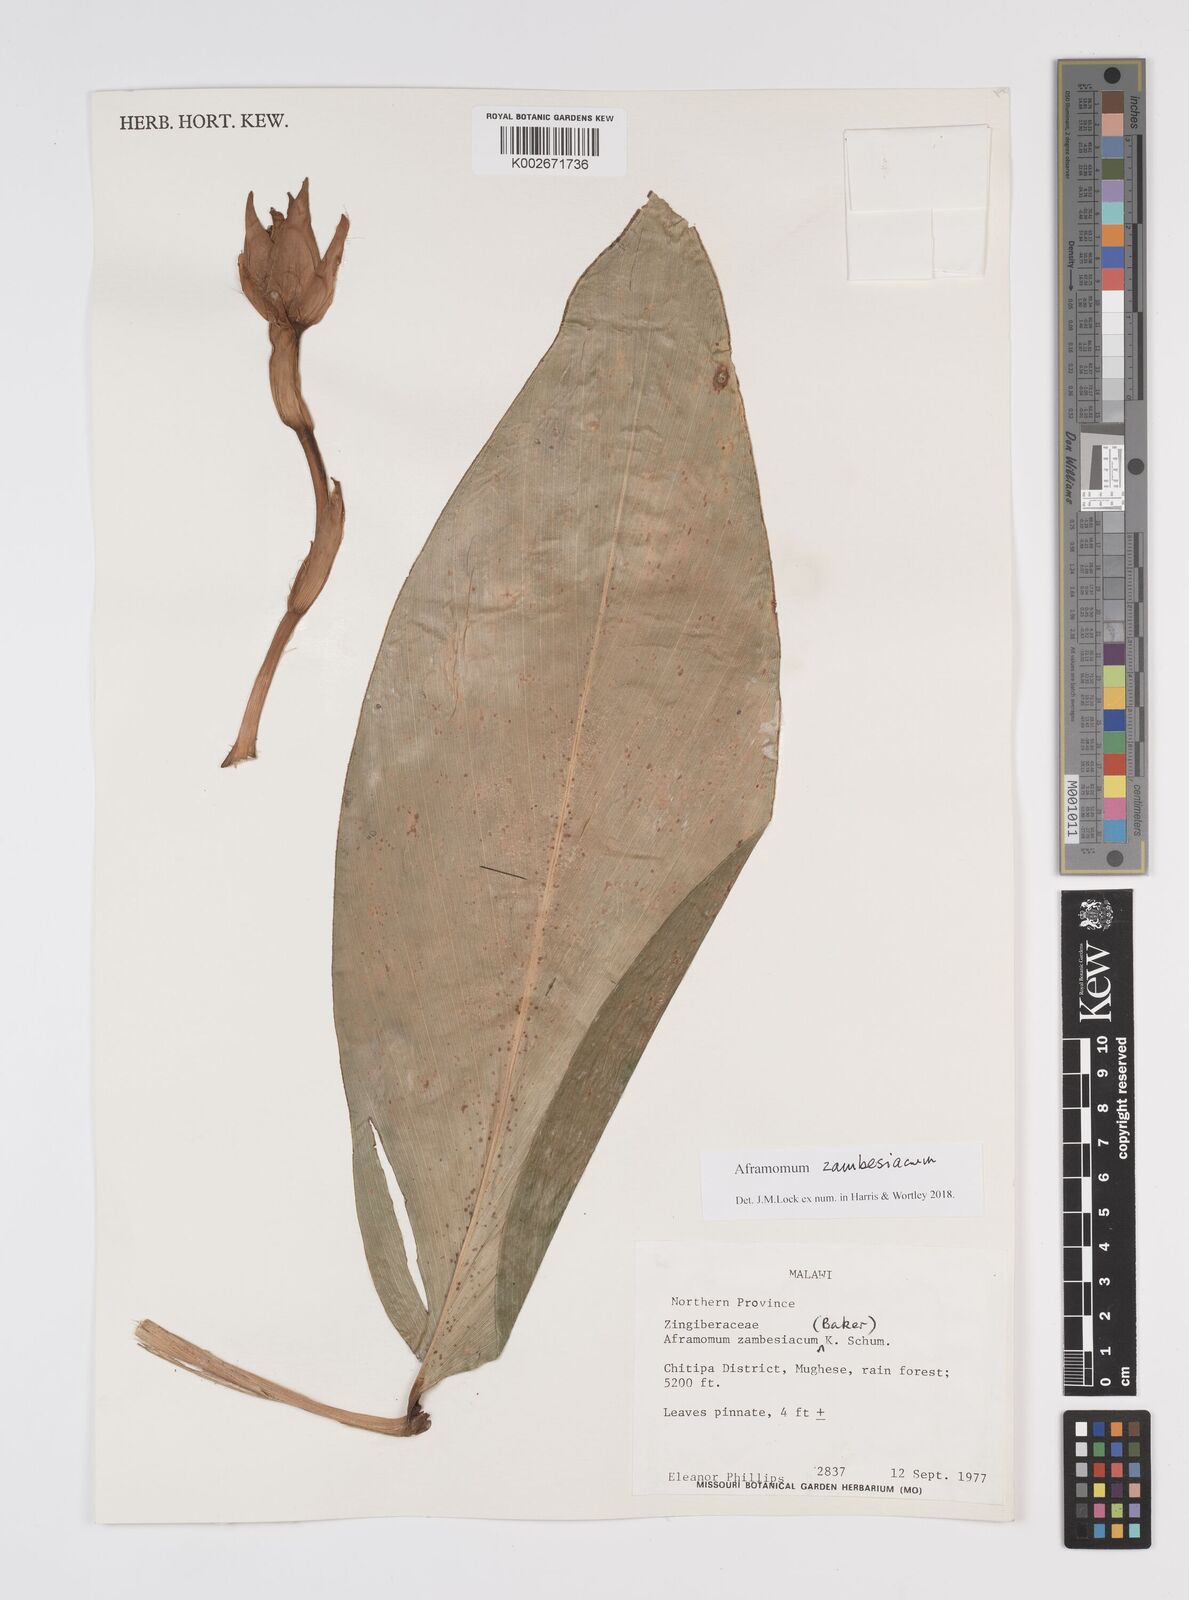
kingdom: Plantae
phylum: Tracheophyta
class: Liliopsida
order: Zingiberales
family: Zingiberaceae
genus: Aframomum
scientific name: Aframomum zambesiacum
